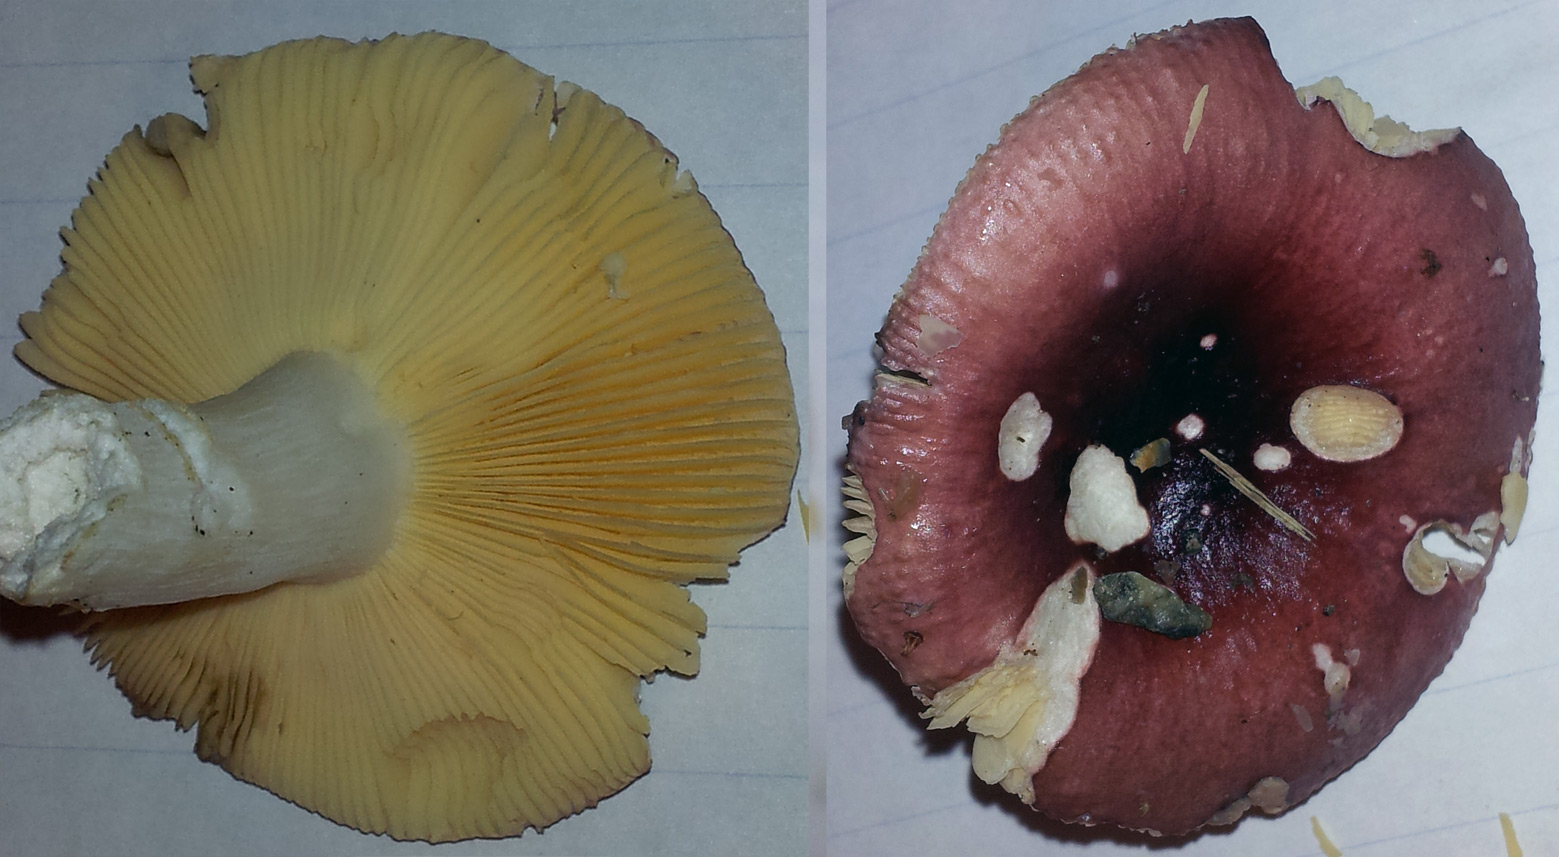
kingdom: Fungi
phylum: Basidiomycota
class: Agaricomycetes
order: Russulales
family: Russulaceae
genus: Russula
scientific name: Russula cessans
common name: fyrre-skørhat
